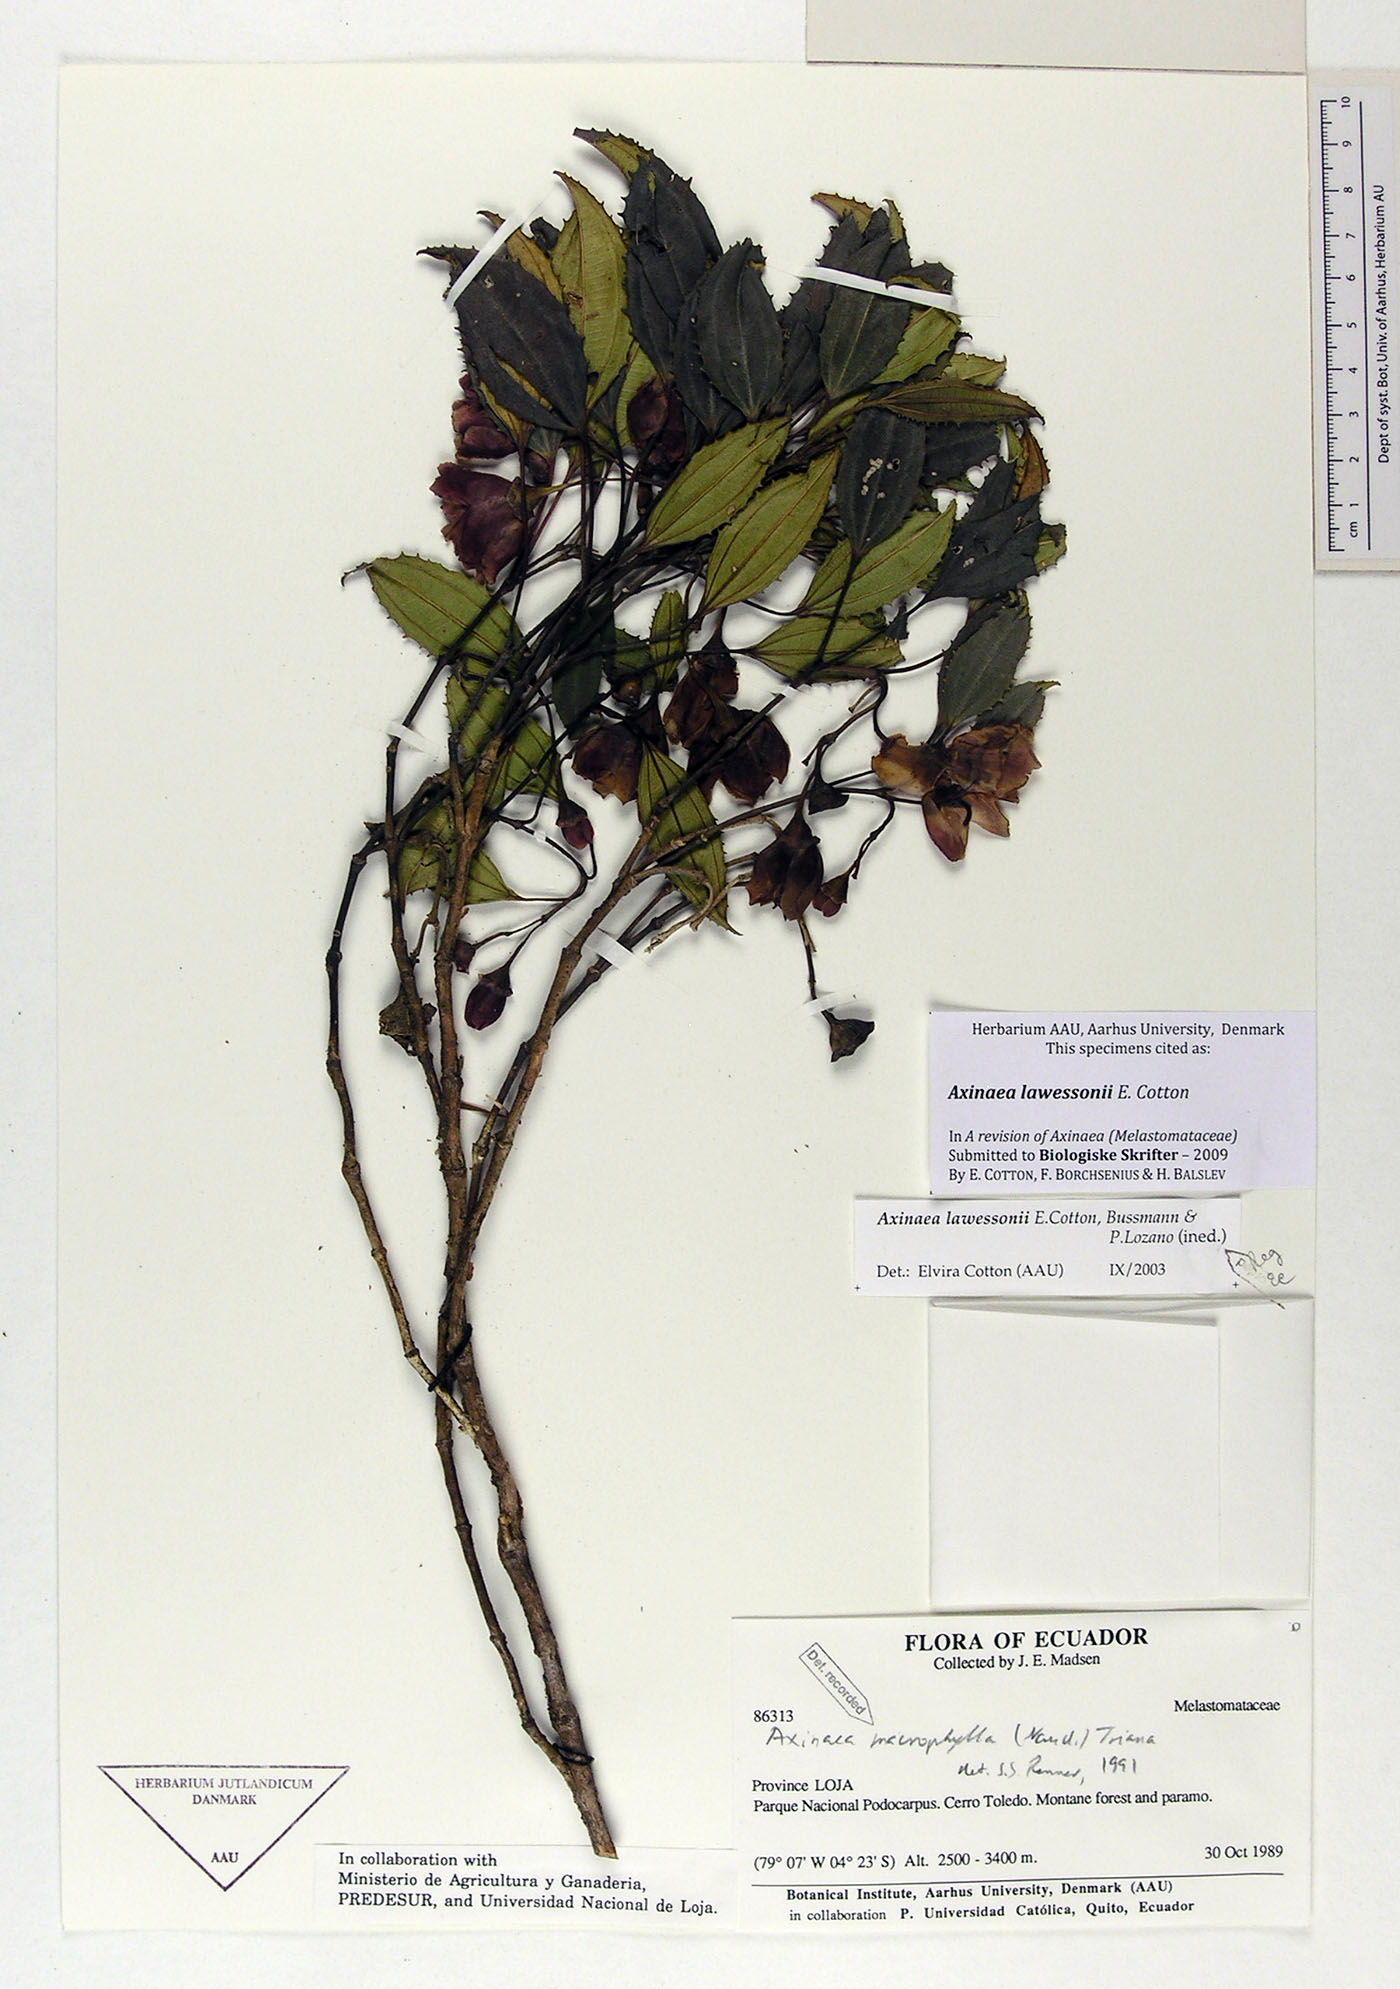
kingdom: Plantae
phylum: Tracheophyta
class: Magnoliopsida
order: Myrtales
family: Melastomataceae
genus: Axinaea
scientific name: Axinaea lawessonii
